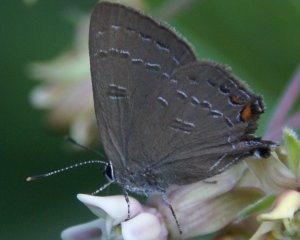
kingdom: Animalia
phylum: Arthropoda
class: Insecta
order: Lepidoptera
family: Lycaenidae
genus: Satyrium
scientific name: Satyrium calanus
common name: Banded Hairstreak
